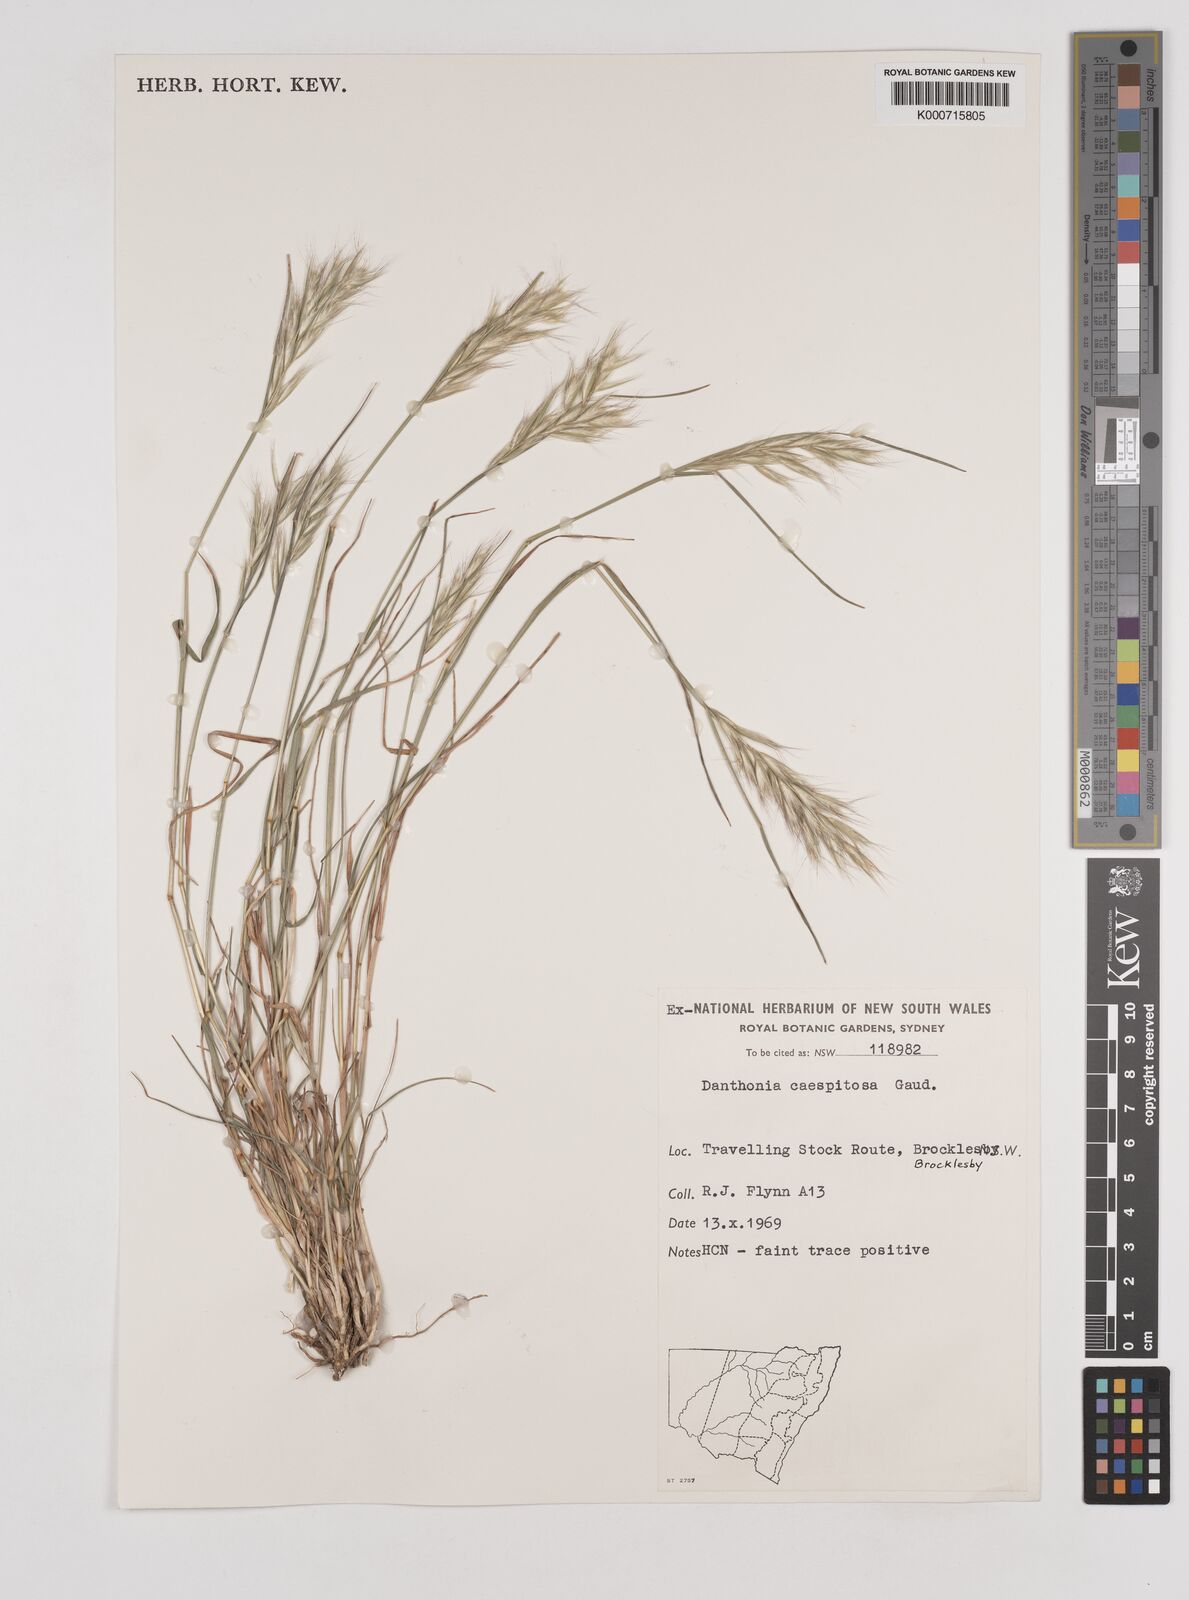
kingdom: Plantae
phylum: Tracheophyta
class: Liliopsida
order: Poales
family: Poaceae
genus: Rytidosperma
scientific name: Rytidosperma caespitosum
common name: Tufted wallaby grass
